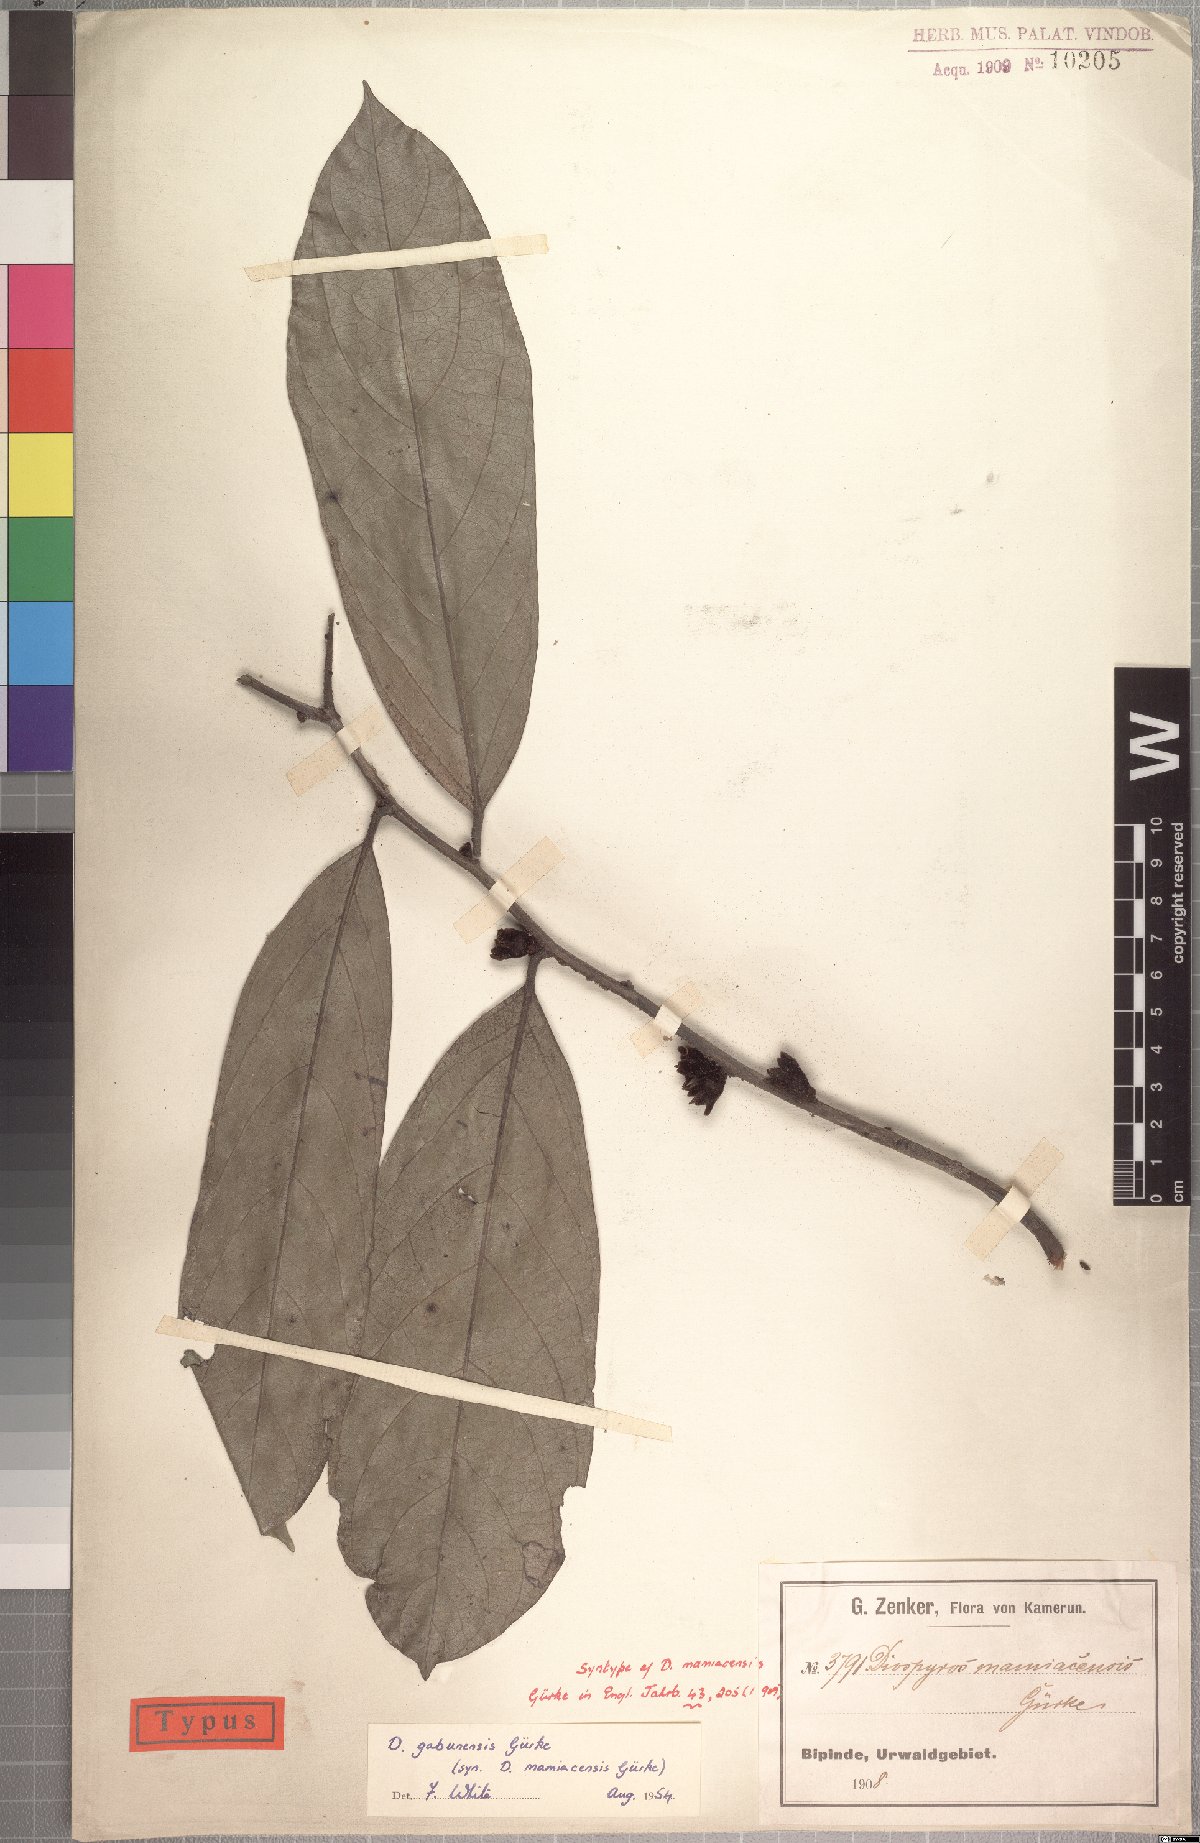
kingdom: Plantae
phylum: Tracheophyta
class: Magnoliopsida
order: Ericales
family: Ebenaceae
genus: Diospyros
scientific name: Diospyros gabunensis
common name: Flint bark tree
